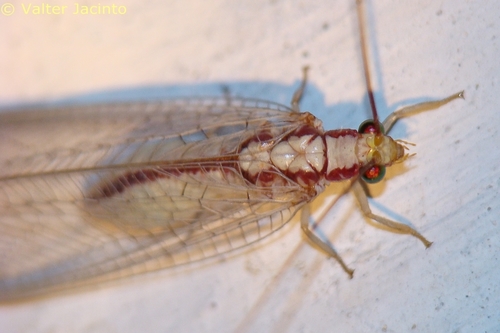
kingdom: Animalia
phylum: Arthropoda
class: Insecta
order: Neuroptera
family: Chrysopidae
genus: Italochrysa
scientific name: Italochrysa italica
